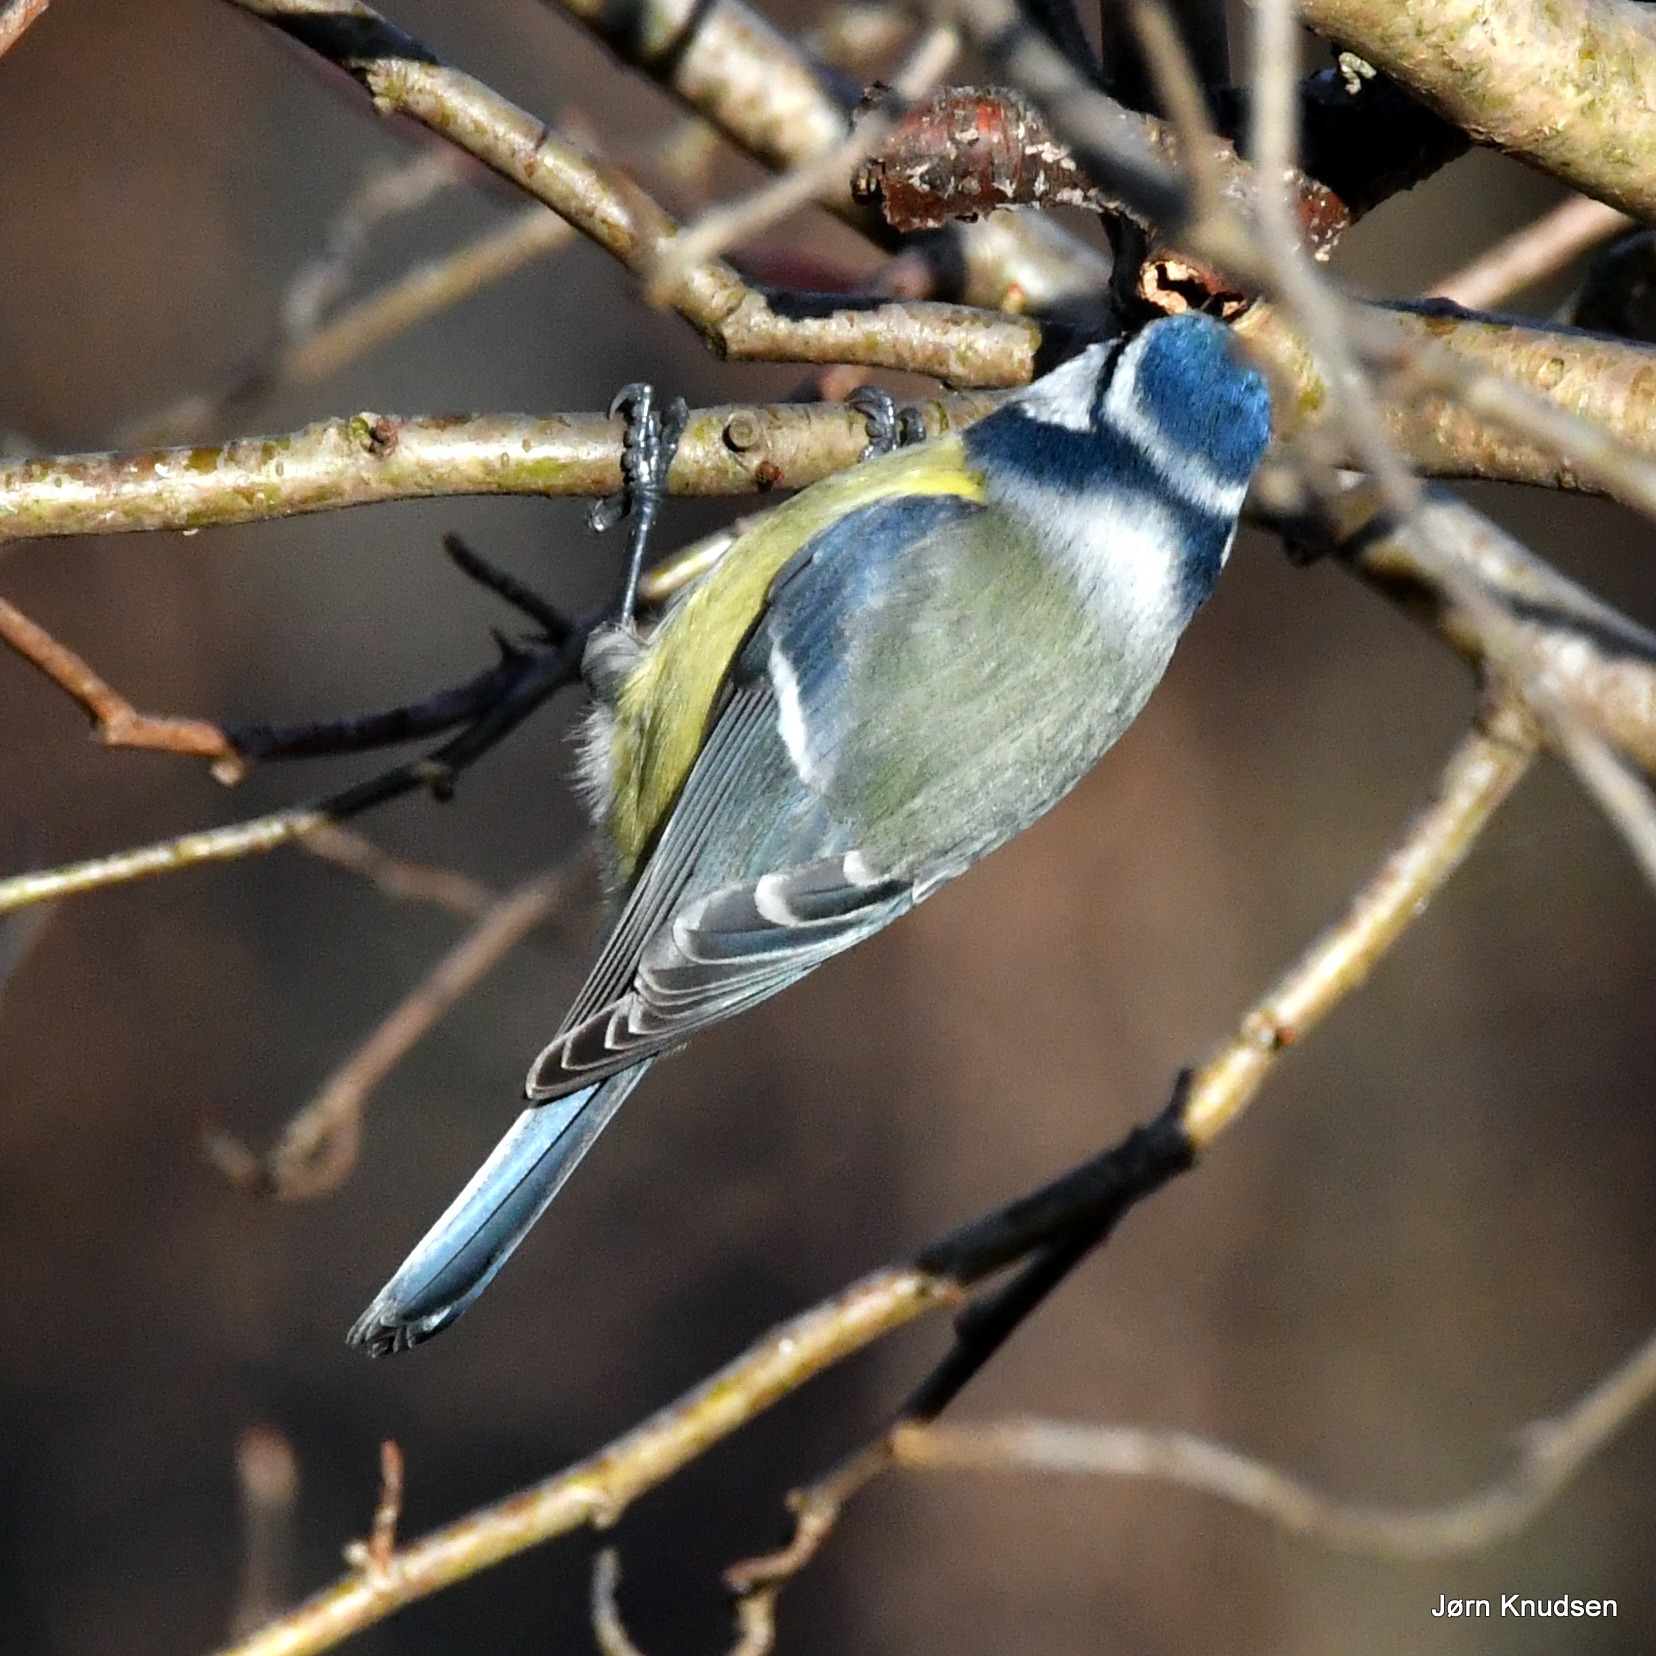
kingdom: Animalia
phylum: Chordata
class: Aves
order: Passeriformes
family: Paridae
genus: Cyanistes
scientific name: Cyanistes caeruleus
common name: Blåmejse
